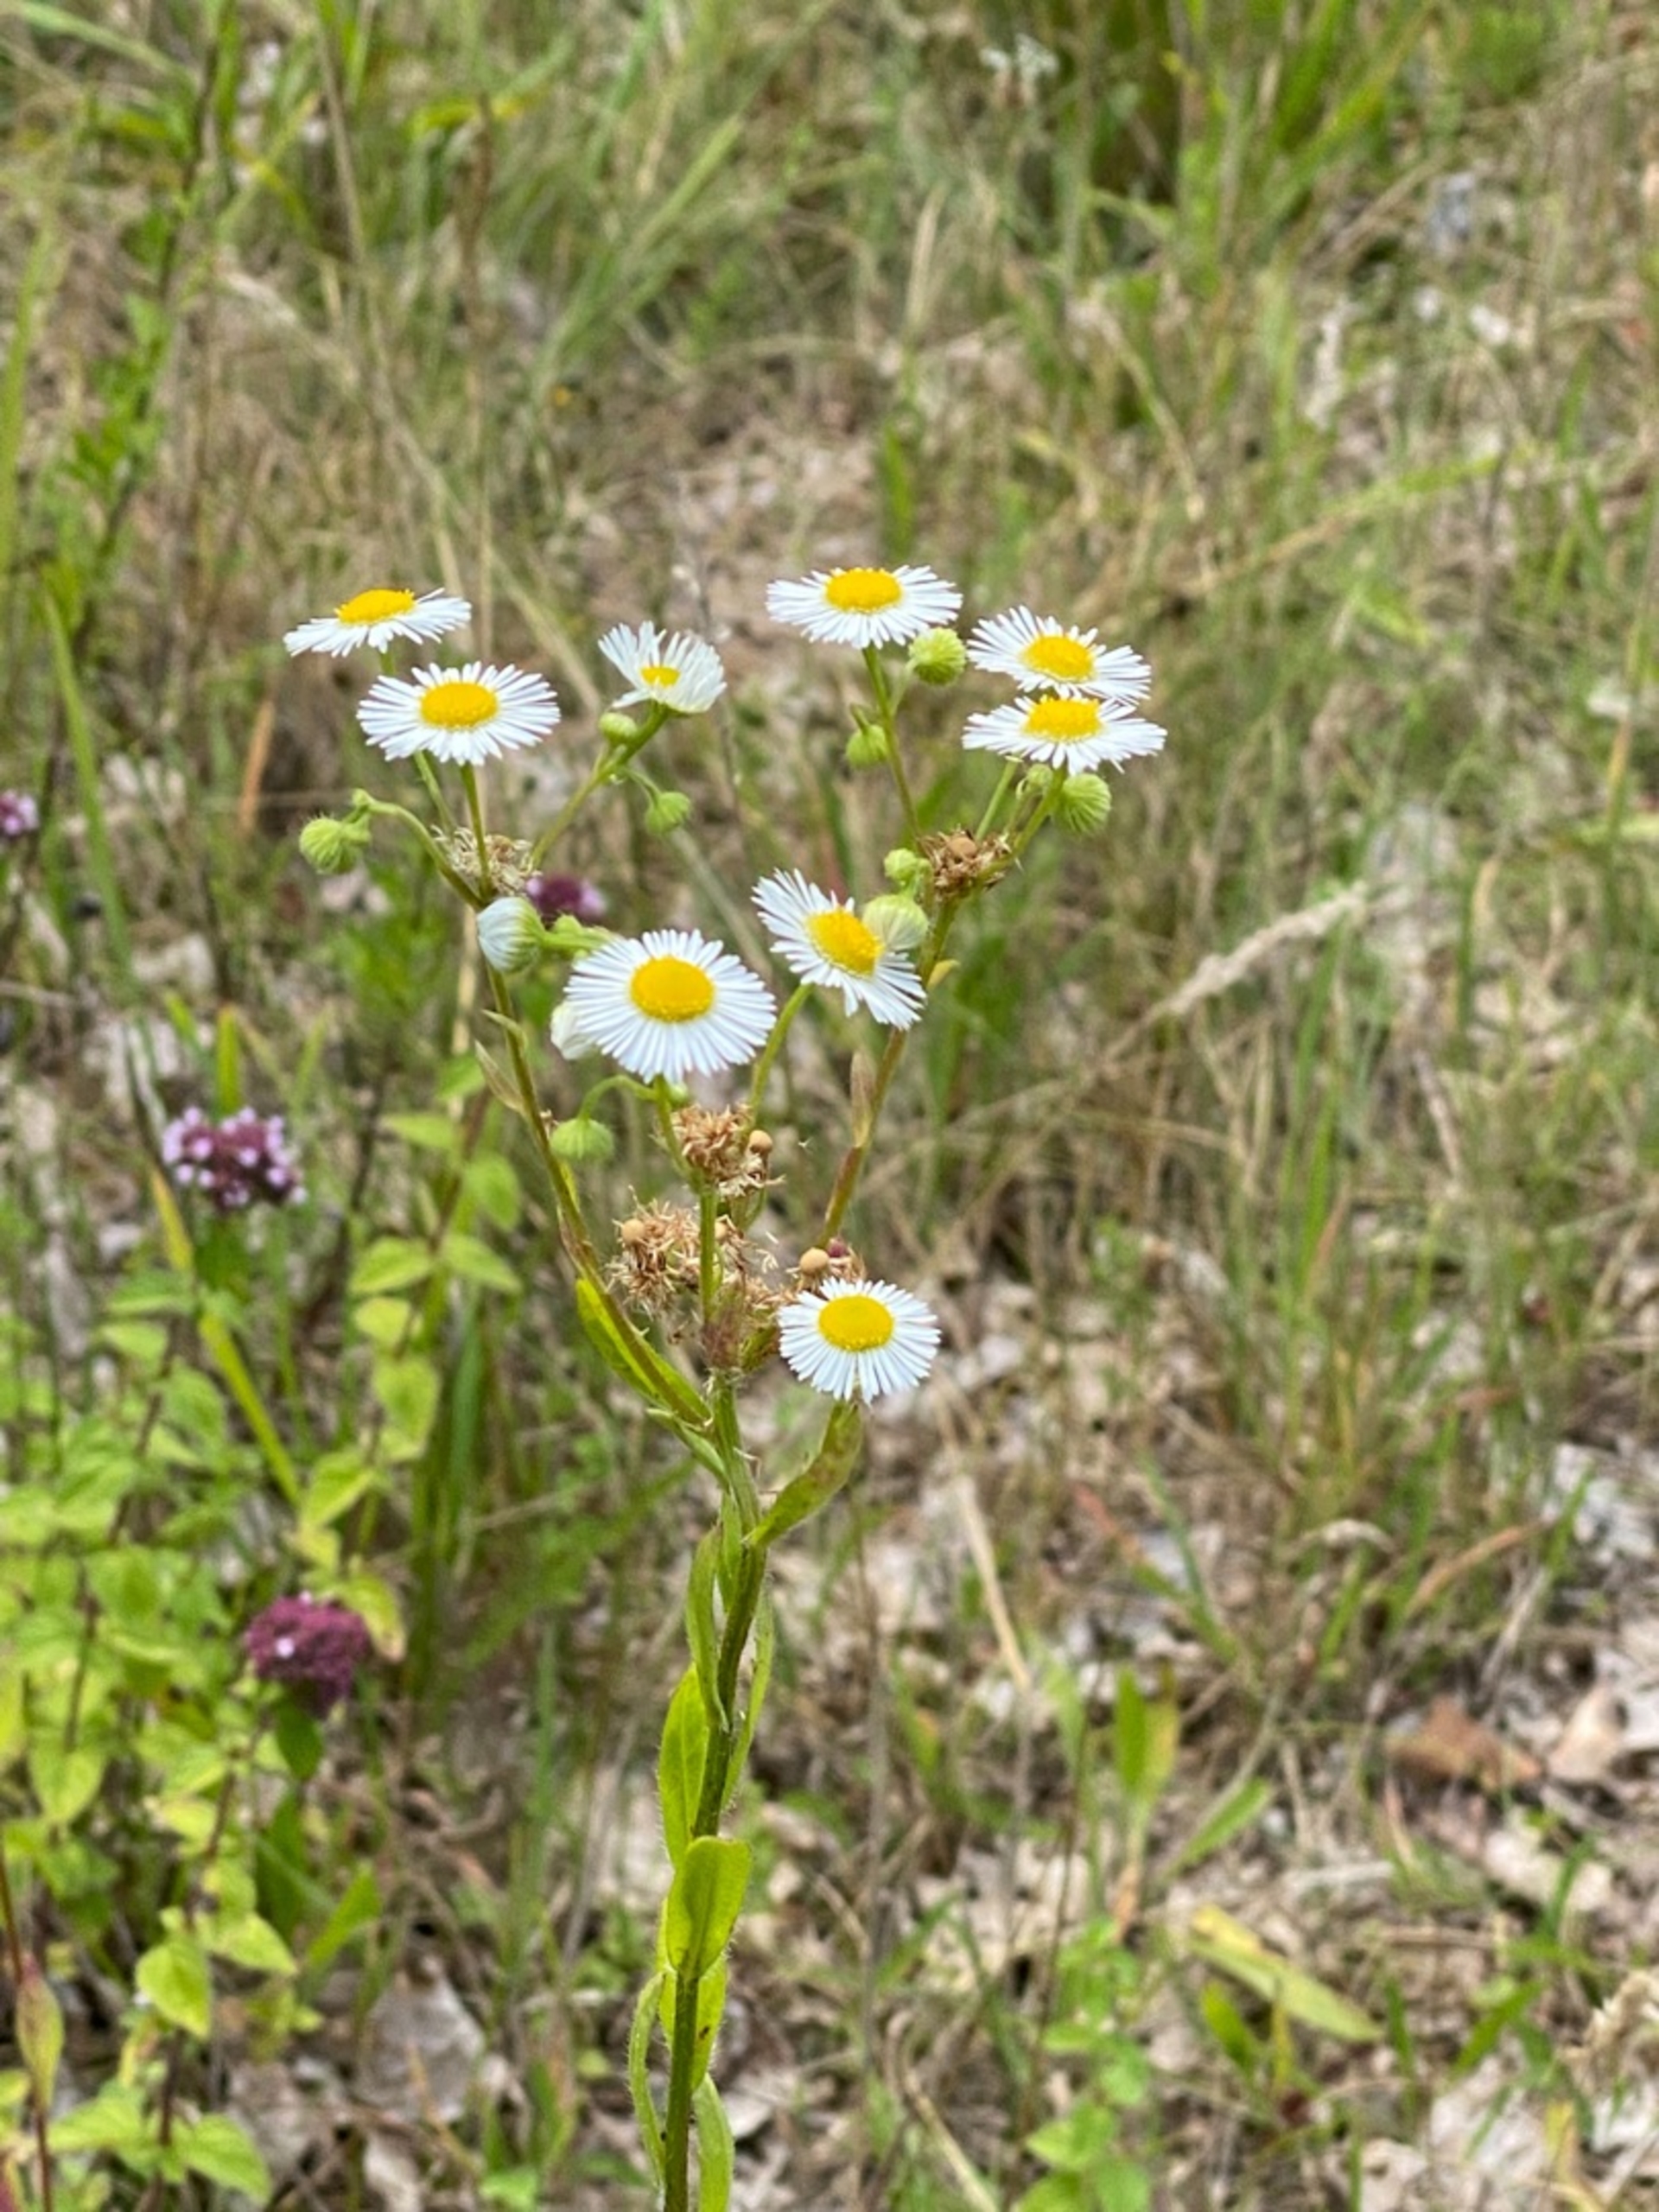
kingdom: Plantae
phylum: Tracheophyta
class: Magnoliopsida
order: Asterales
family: Asteraceae
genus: Erigeron
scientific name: Erigeron strigosus
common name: Hvid smalstråle
